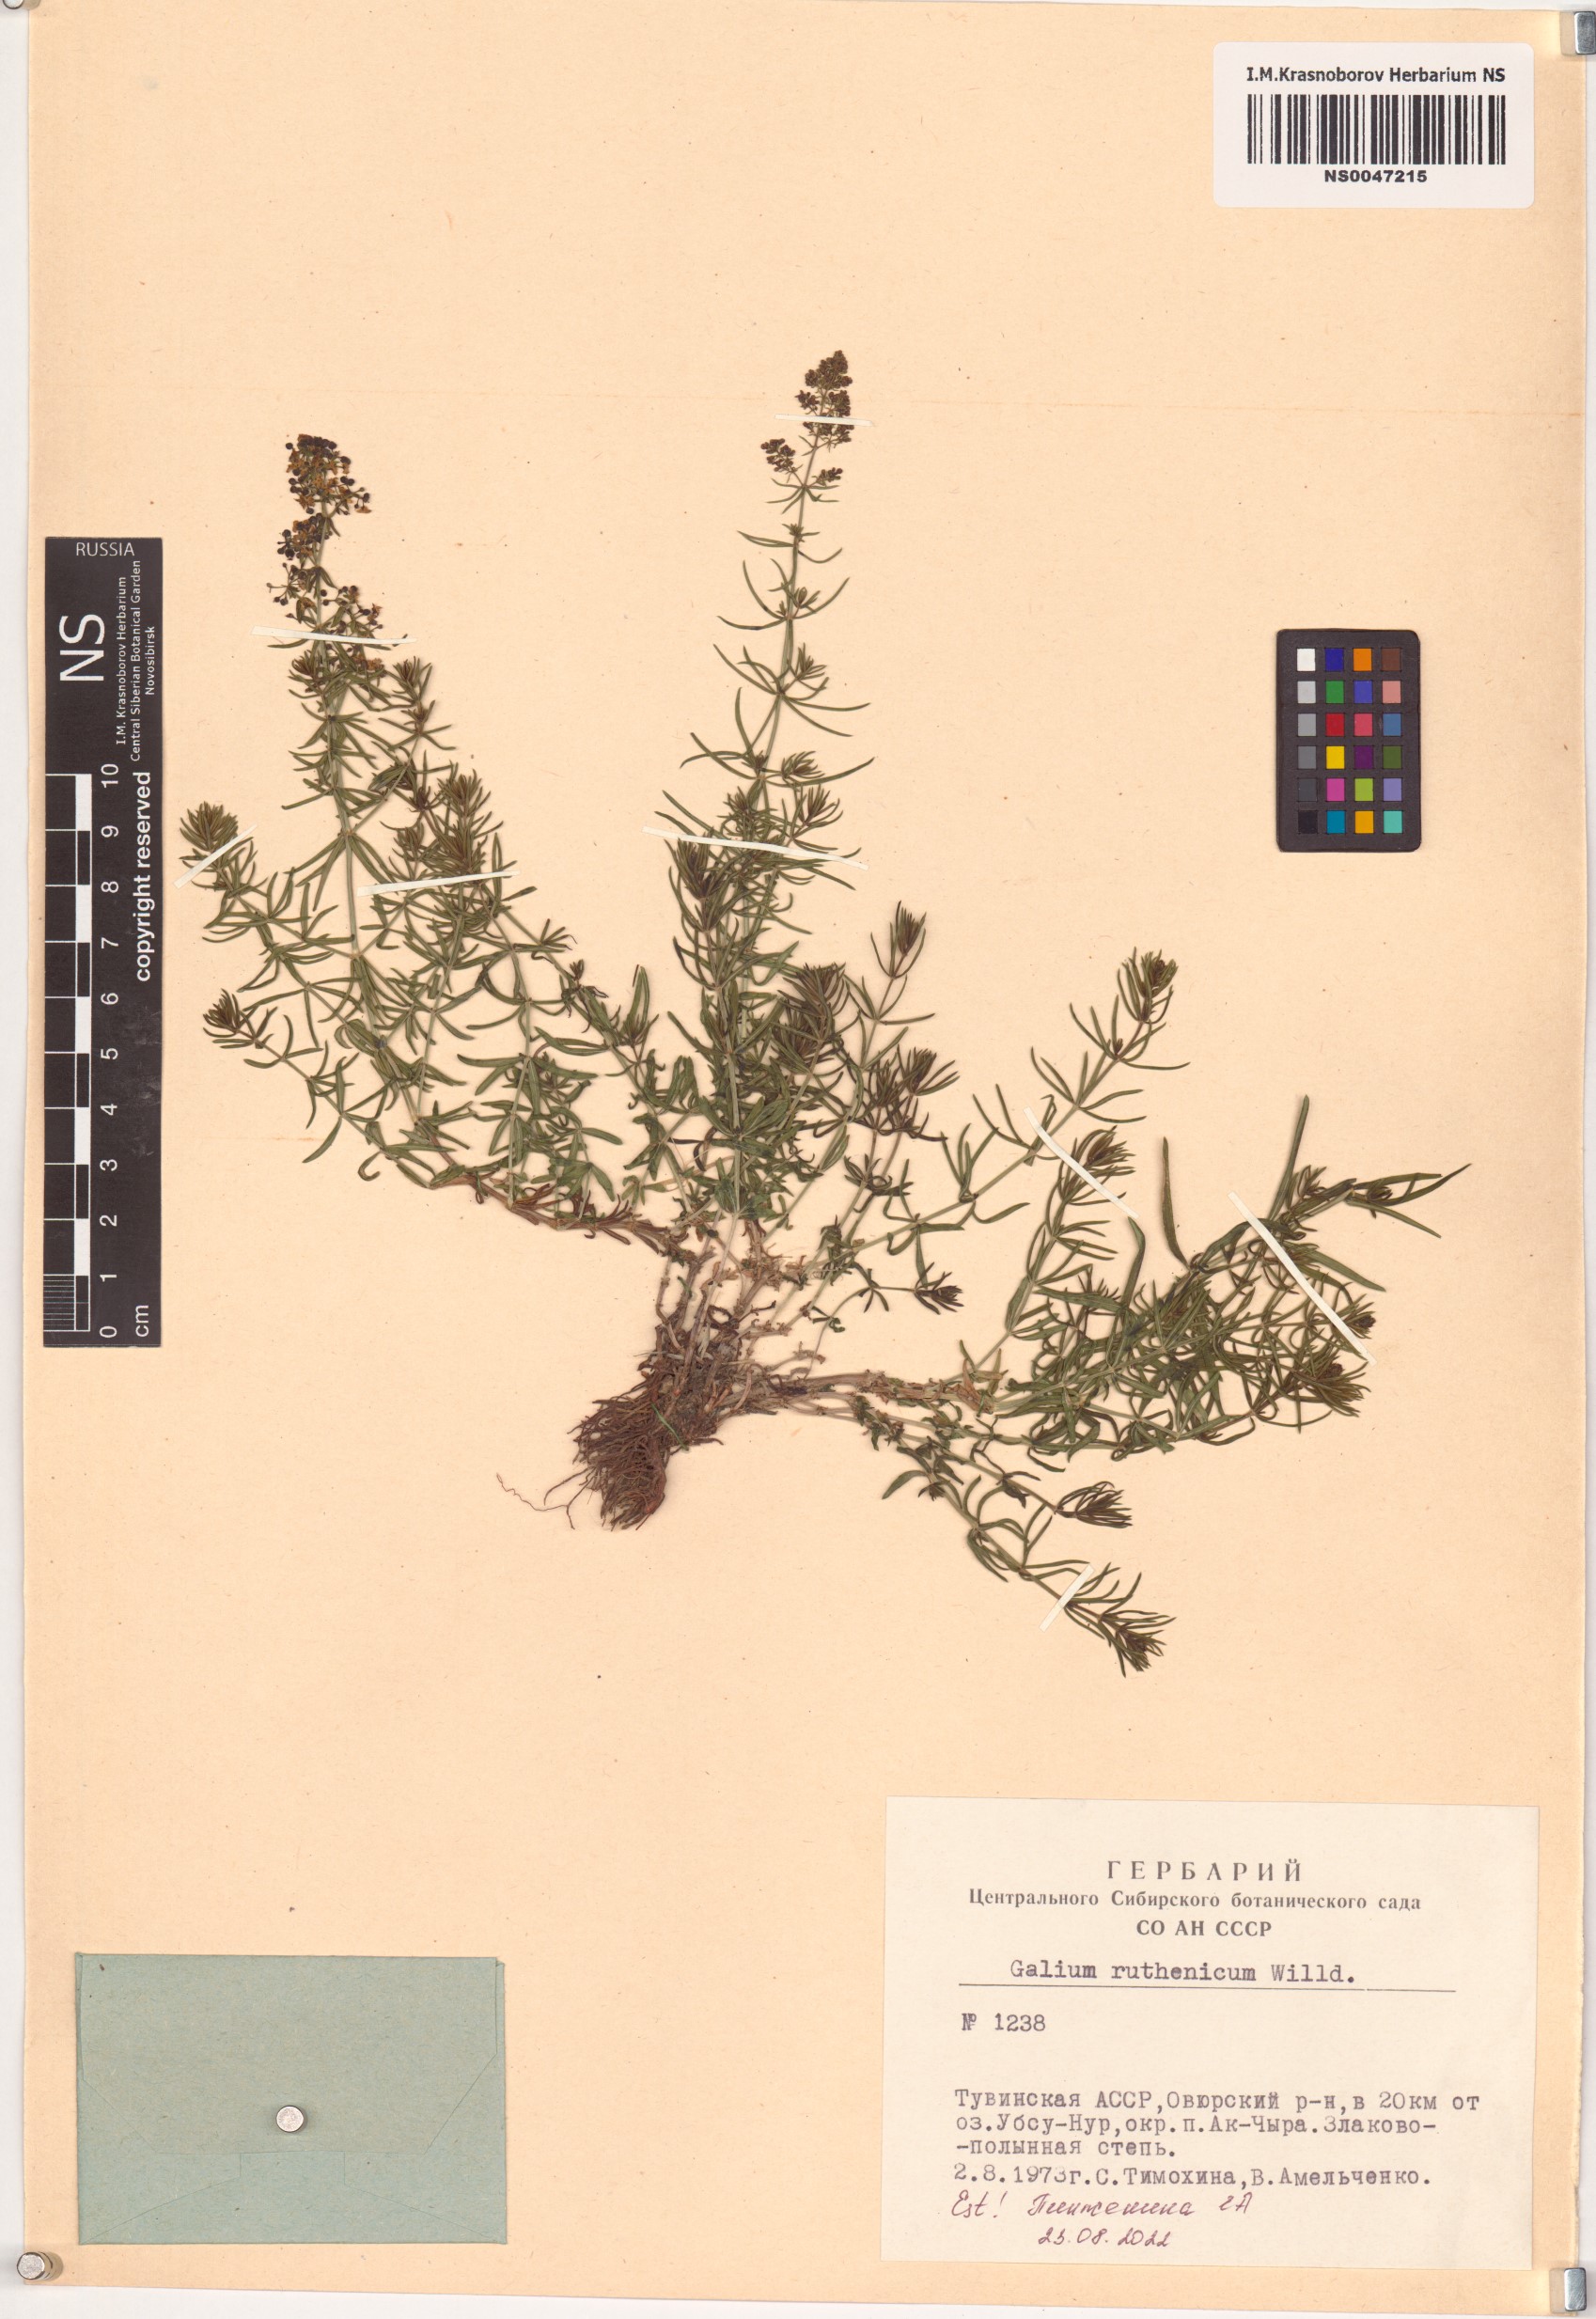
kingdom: Plantae
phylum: Tracheophyta
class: Magnoliopsida
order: Gentianales
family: Rubiaceae
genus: Galium
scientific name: Galium verum
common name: Lady's bedstraw
